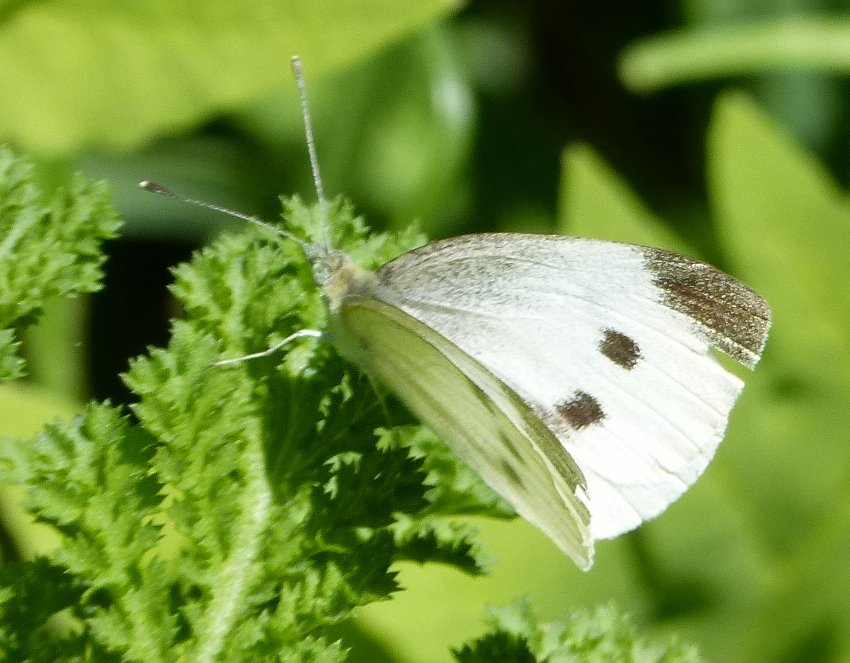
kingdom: Animalia
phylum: Arthropoda
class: Insecta
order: Lepidoptera
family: Pieridae
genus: Pieris
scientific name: Pieris rapae
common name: Cabbage White
